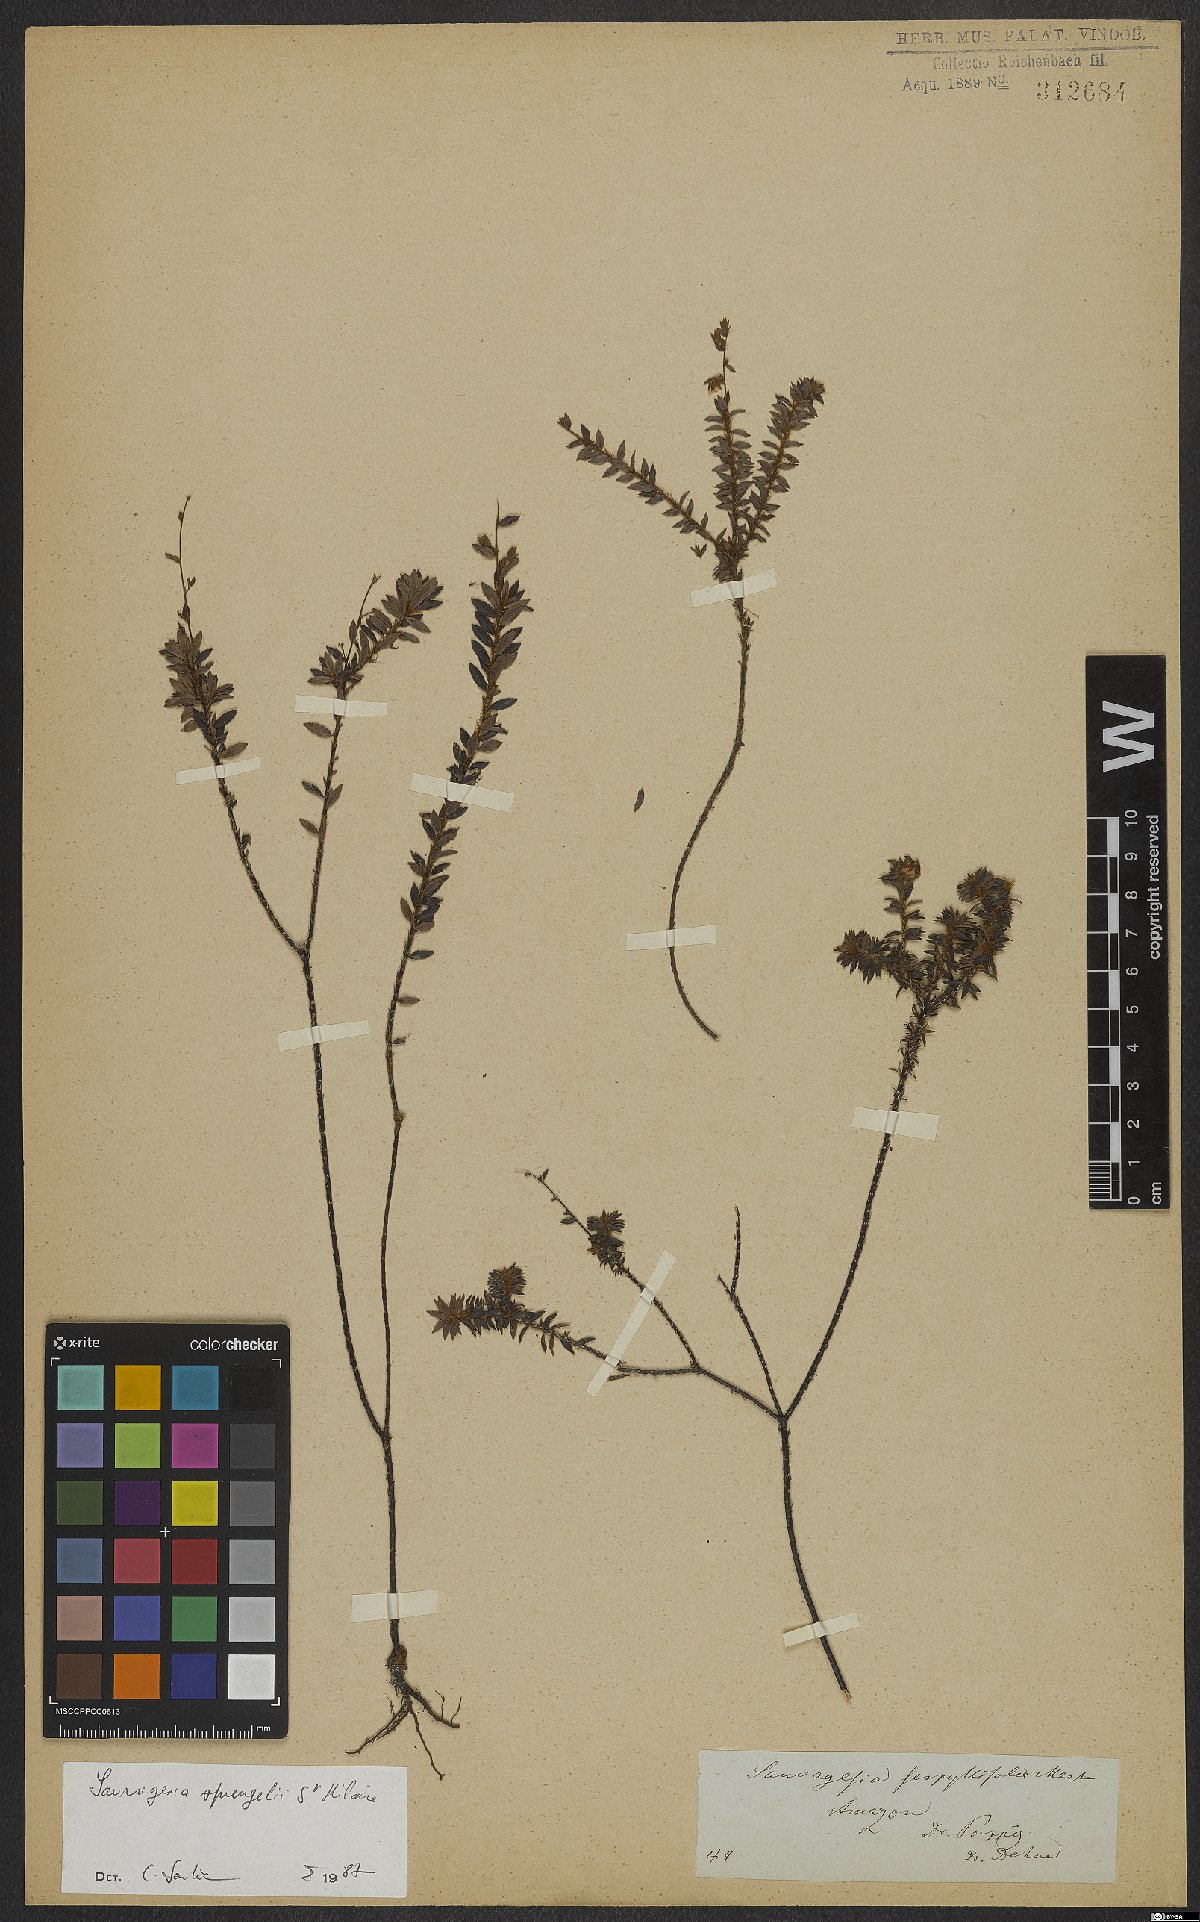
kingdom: Plantae
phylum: Tracheophyta
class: Magnoliopsida
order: Malpighiales
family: Ochnaceae
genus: Sauvagesia
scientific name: Sauvagesia tenella
